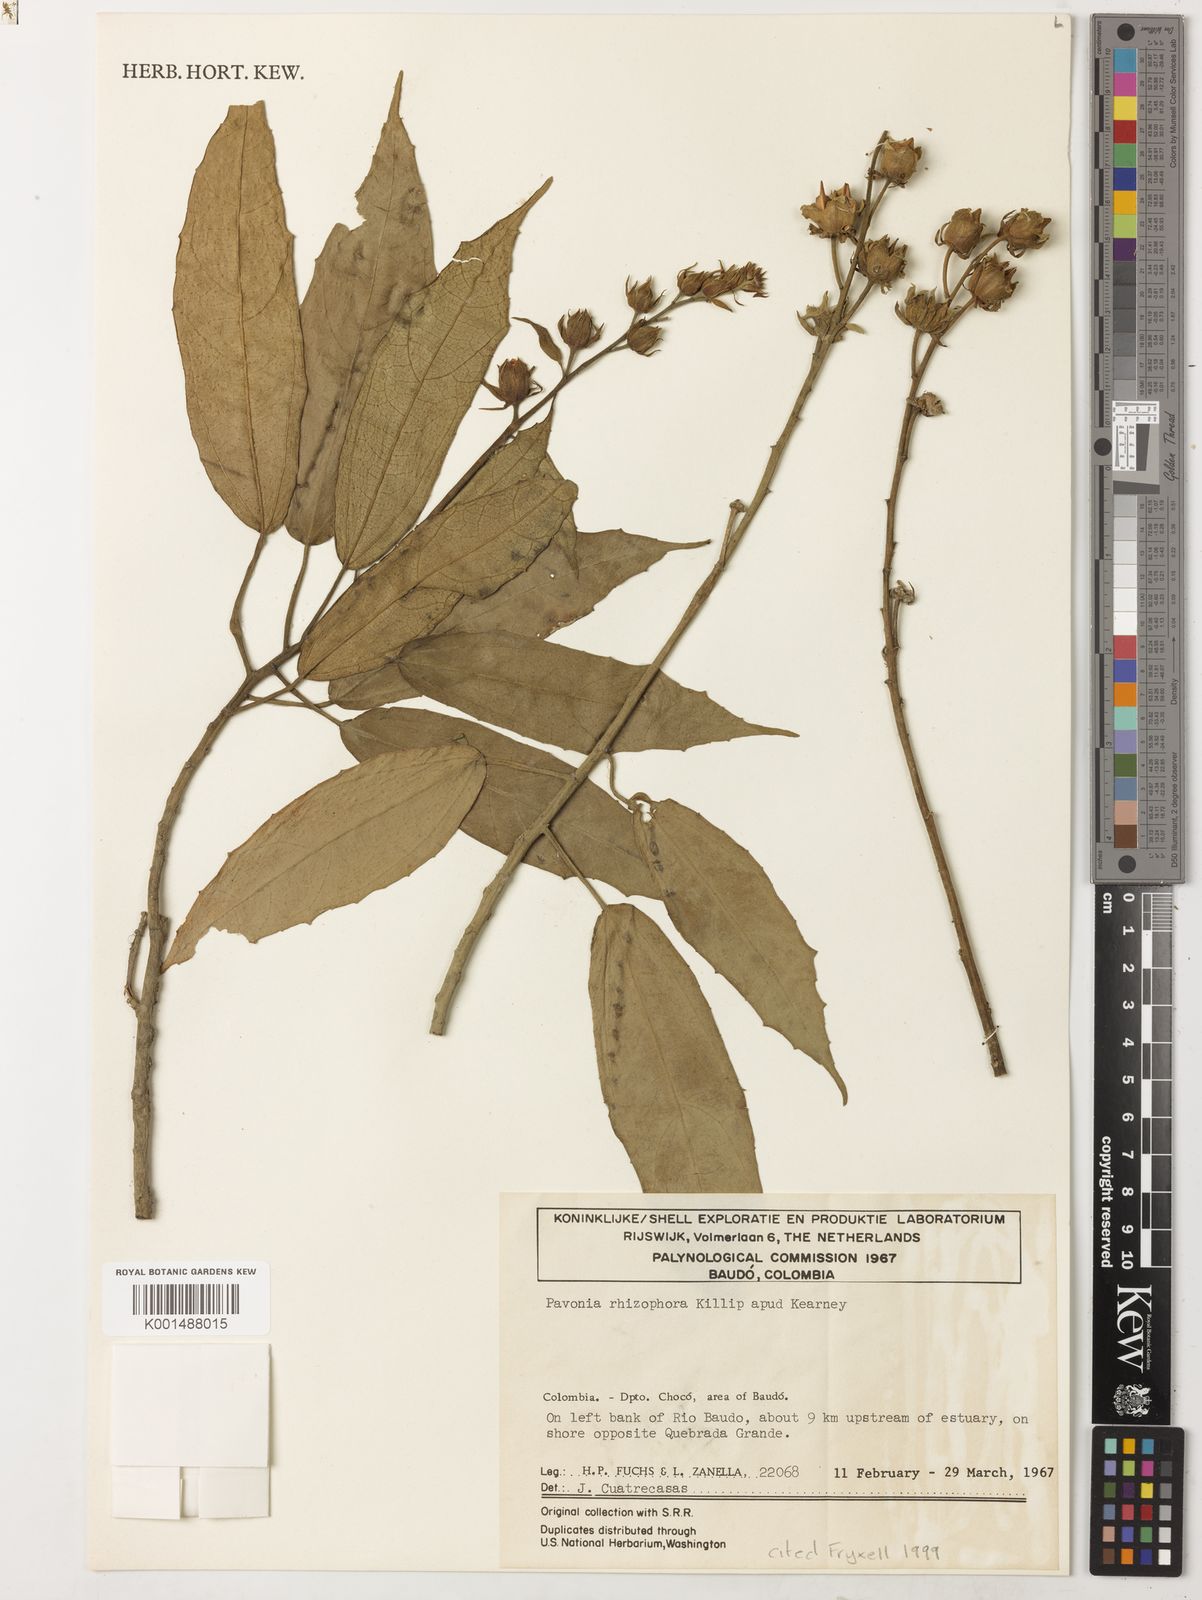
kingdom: Plantae
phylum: Tracheophyta
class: Magnoliopsida
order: Malvales
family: Malvaceae
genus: Pavonia
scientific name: Pavonia rhizophorae
